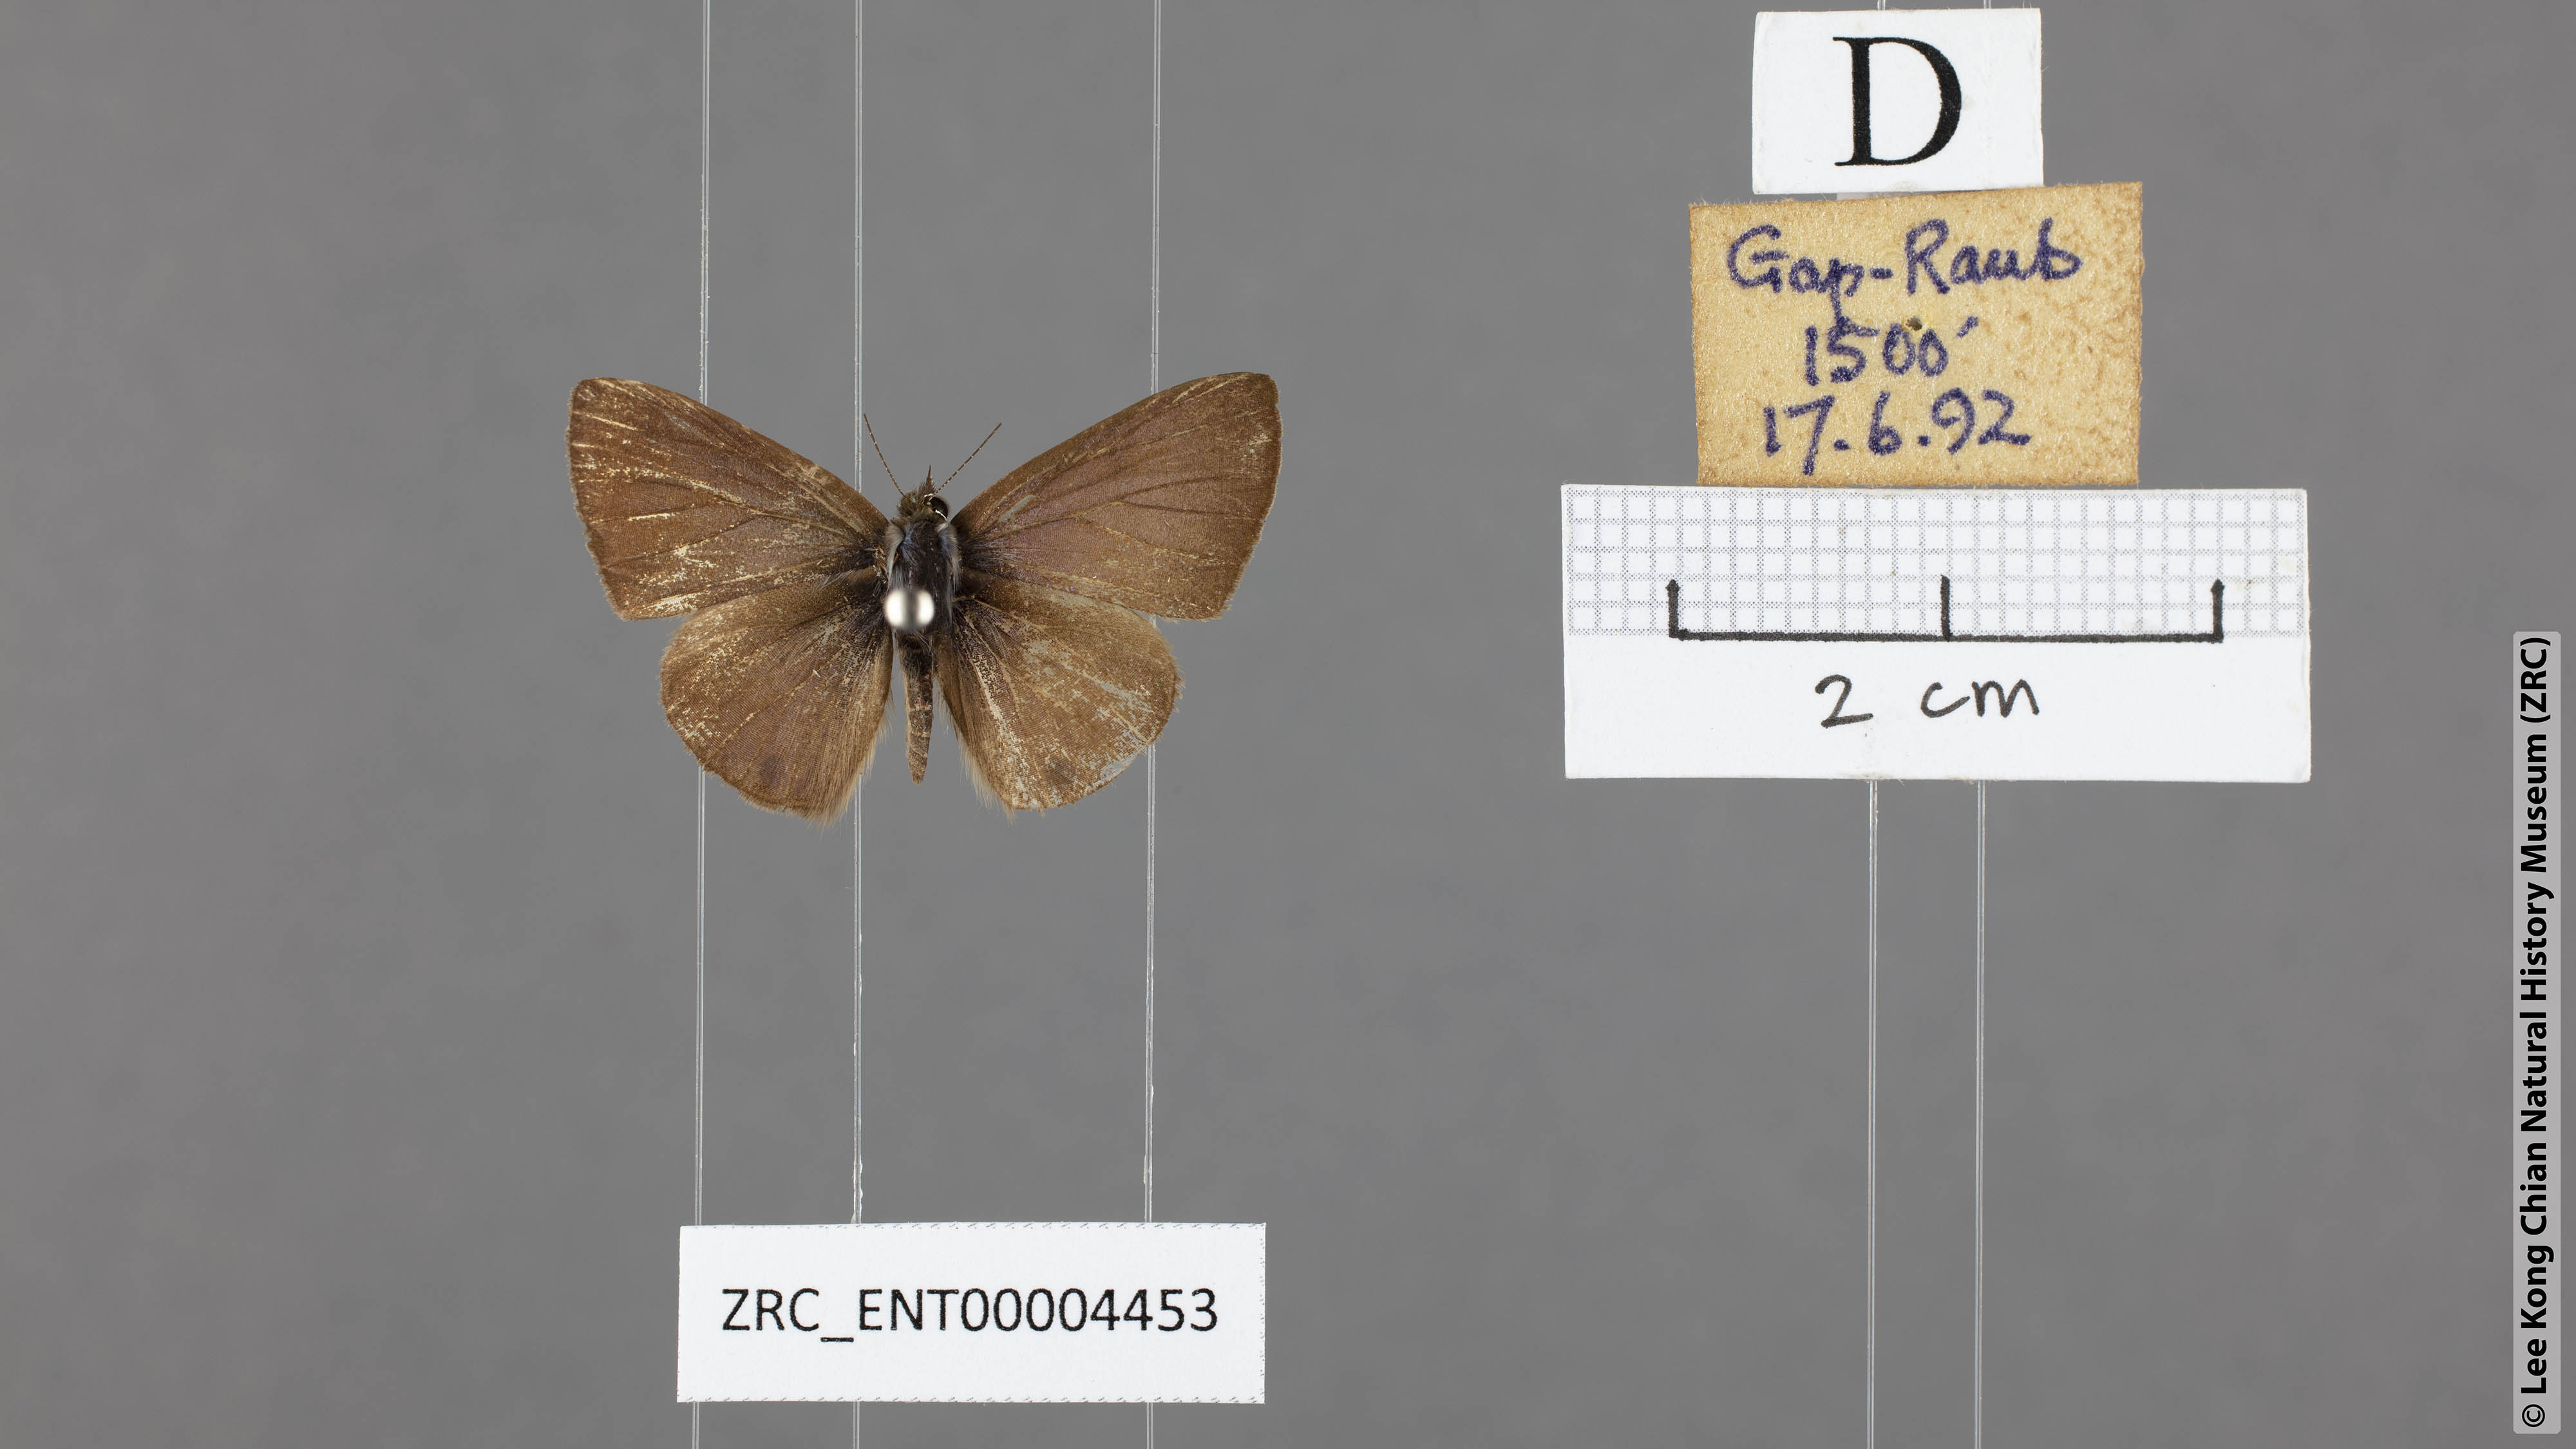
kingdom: Animalia
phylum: Arthropoda
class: Insecta
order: Lepidoptera
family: Lycaenidae
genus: Prosotas
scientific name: Prosotas gracilis
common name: Dark-based lineblue
